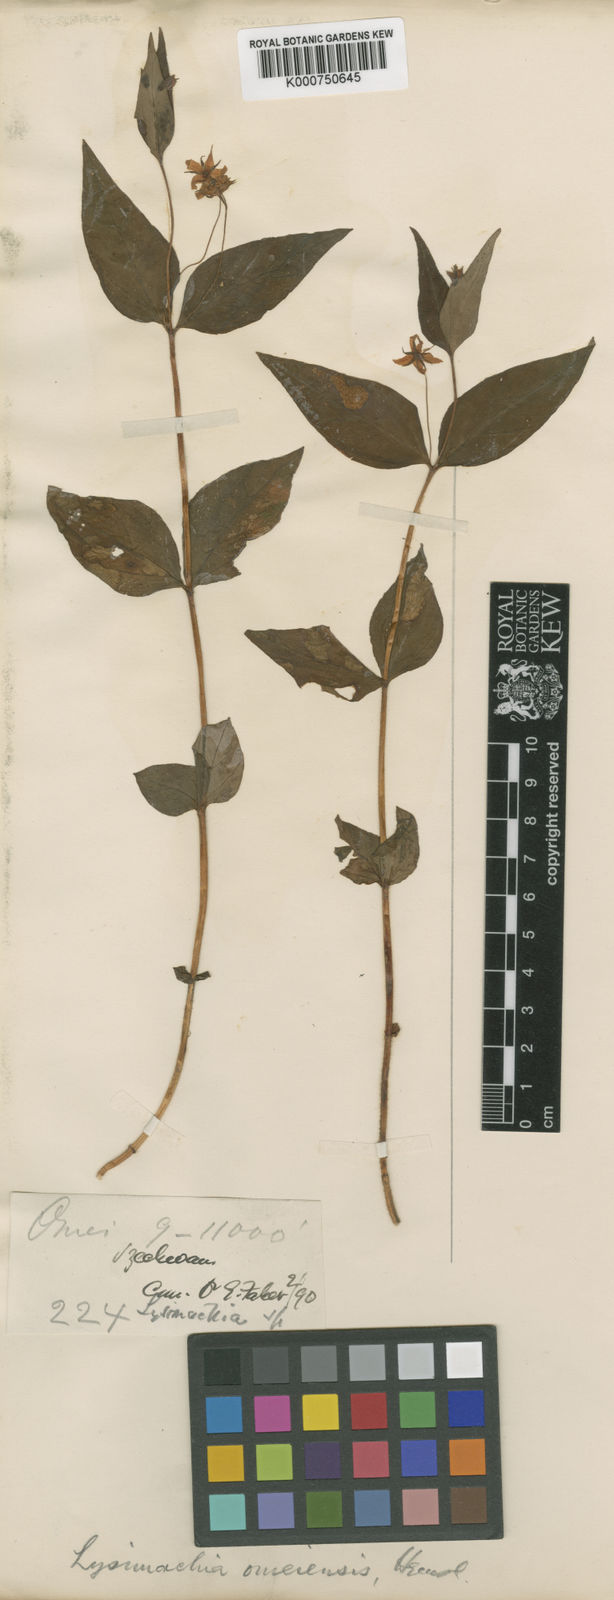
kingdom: Plantae
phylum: Tracheophyta
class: Magnoliopsida
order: Ericales
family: Primulaceae
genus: Lysimachia
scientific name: Lysimachia omeiensis
